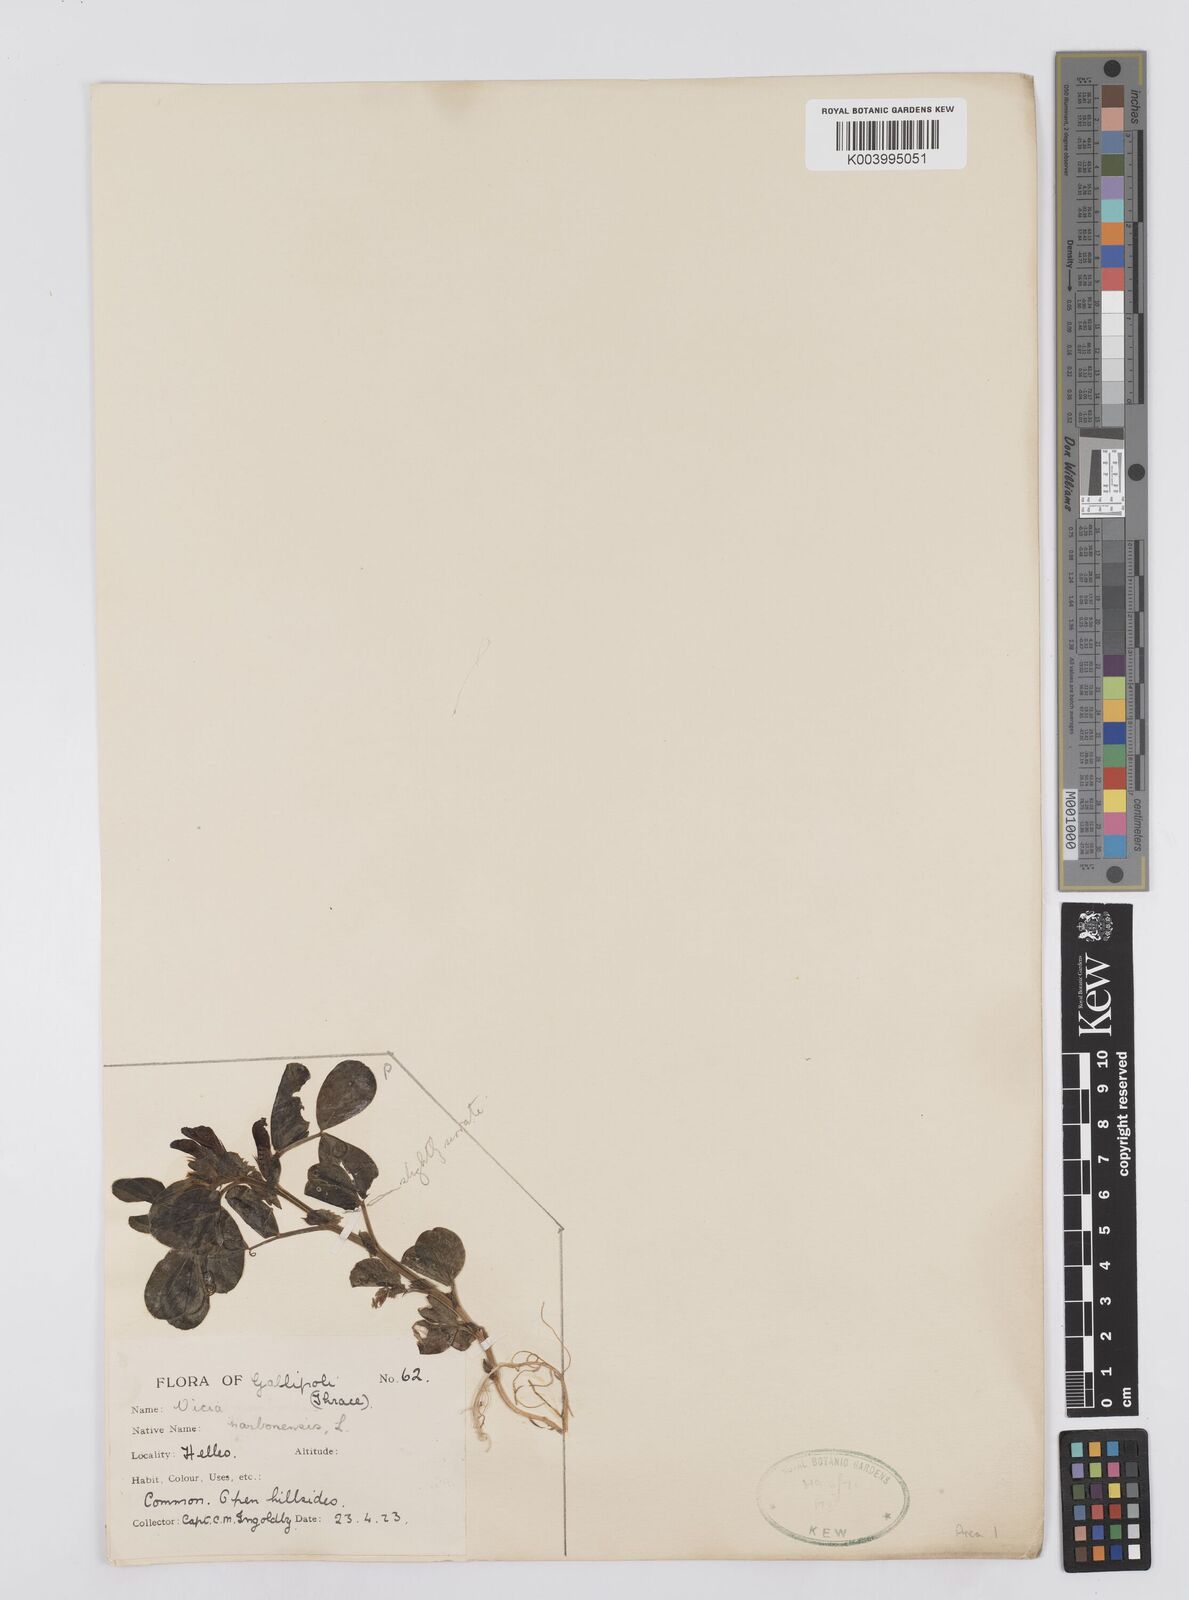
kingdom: Plantae
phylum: Tracheophyta
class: Magnoliopsida
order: Fabales
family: Fabaceae
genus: Vicia
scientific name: Vicia narbonensis
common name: Narbonne vetch
